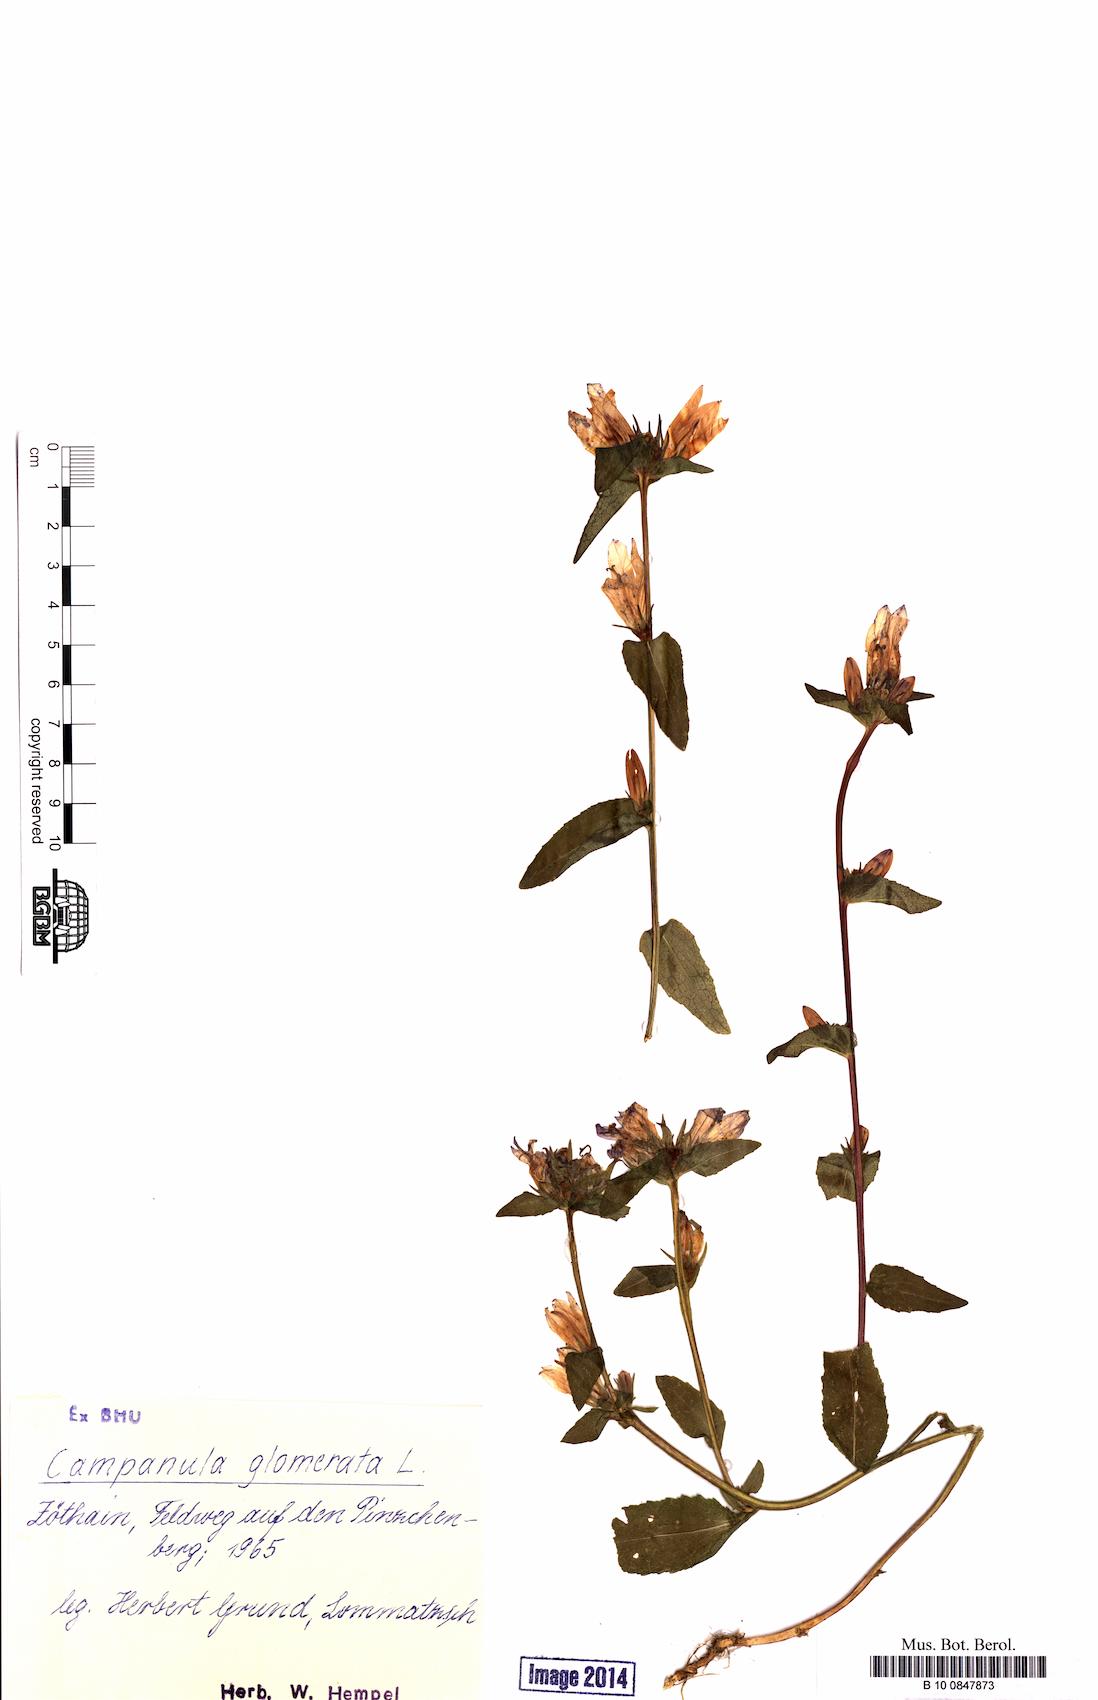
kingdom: Plantae
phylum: Tracheophyta
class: Magnoliopsida
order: Asterales
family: Campanulaceae
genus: Campanula
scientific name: Campanula glomerata
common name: Clustered bellflower
